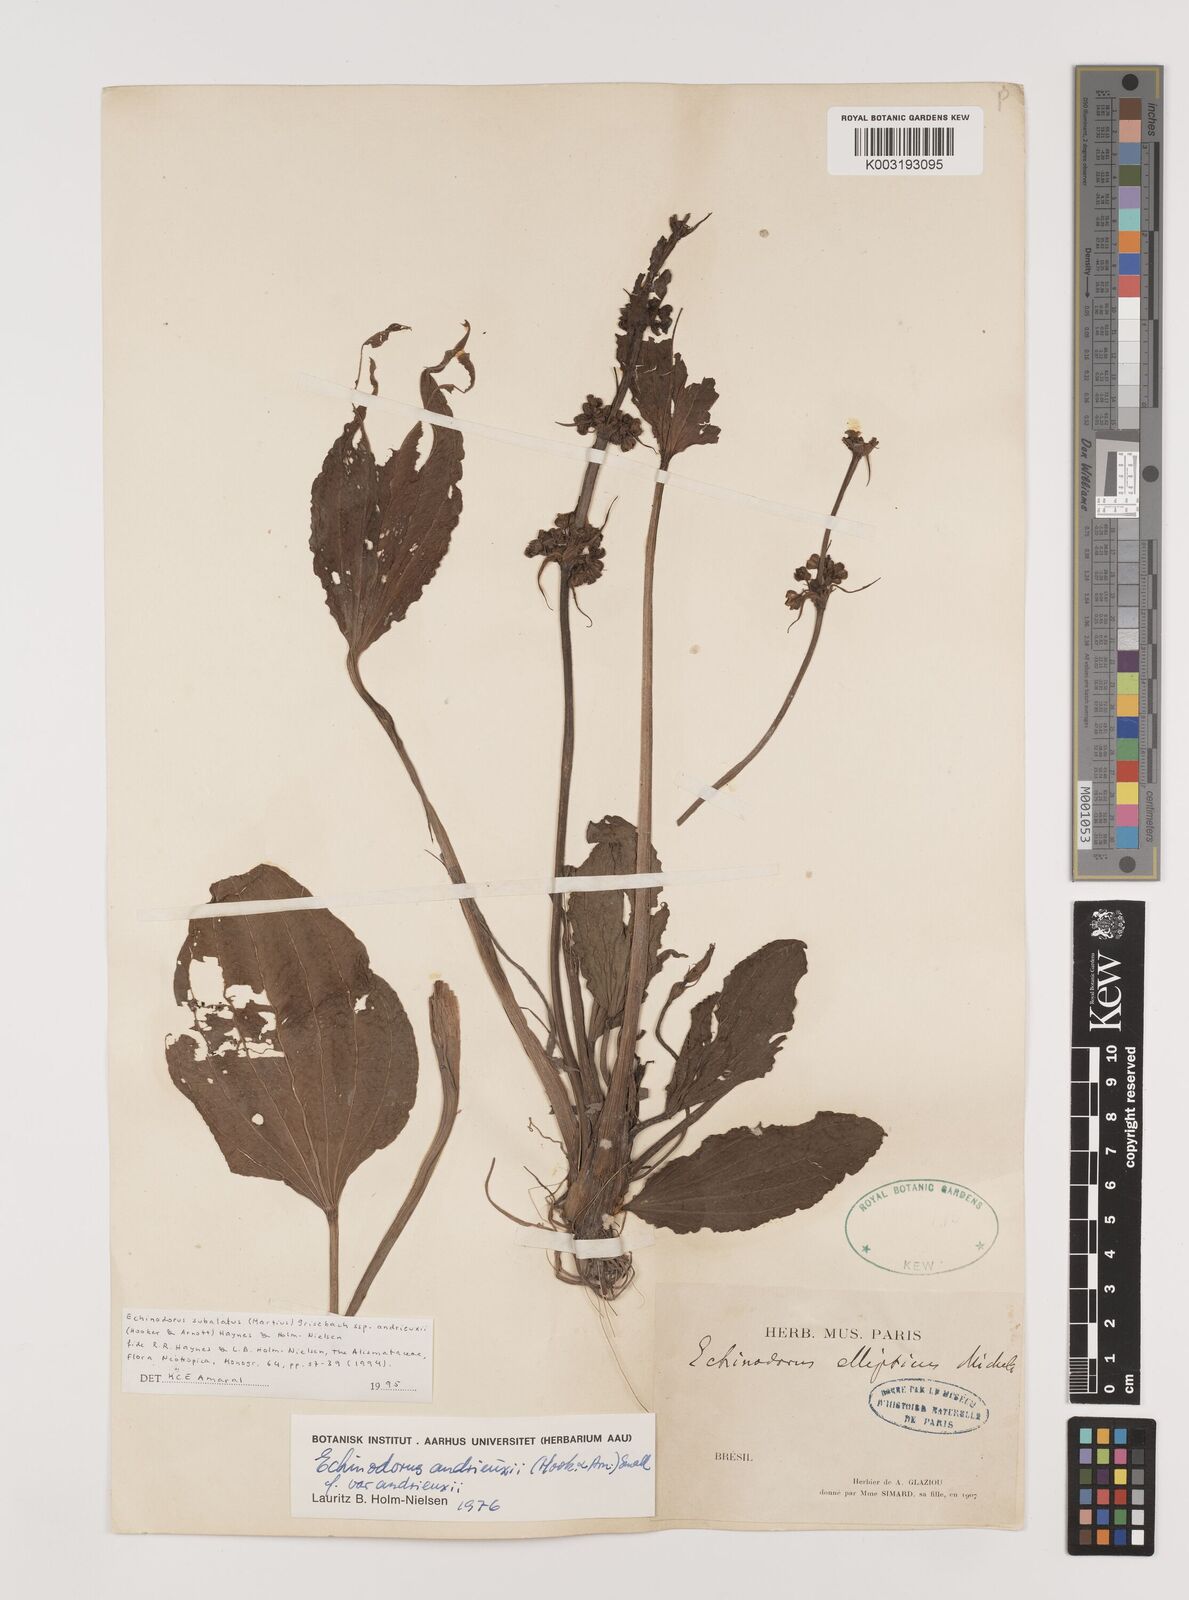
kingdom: Plantae
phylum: Tracheophyta
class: Liliopsida
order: Alismatales
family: Alismataceae
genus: Aquarius
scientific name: Aquarius subulatus
